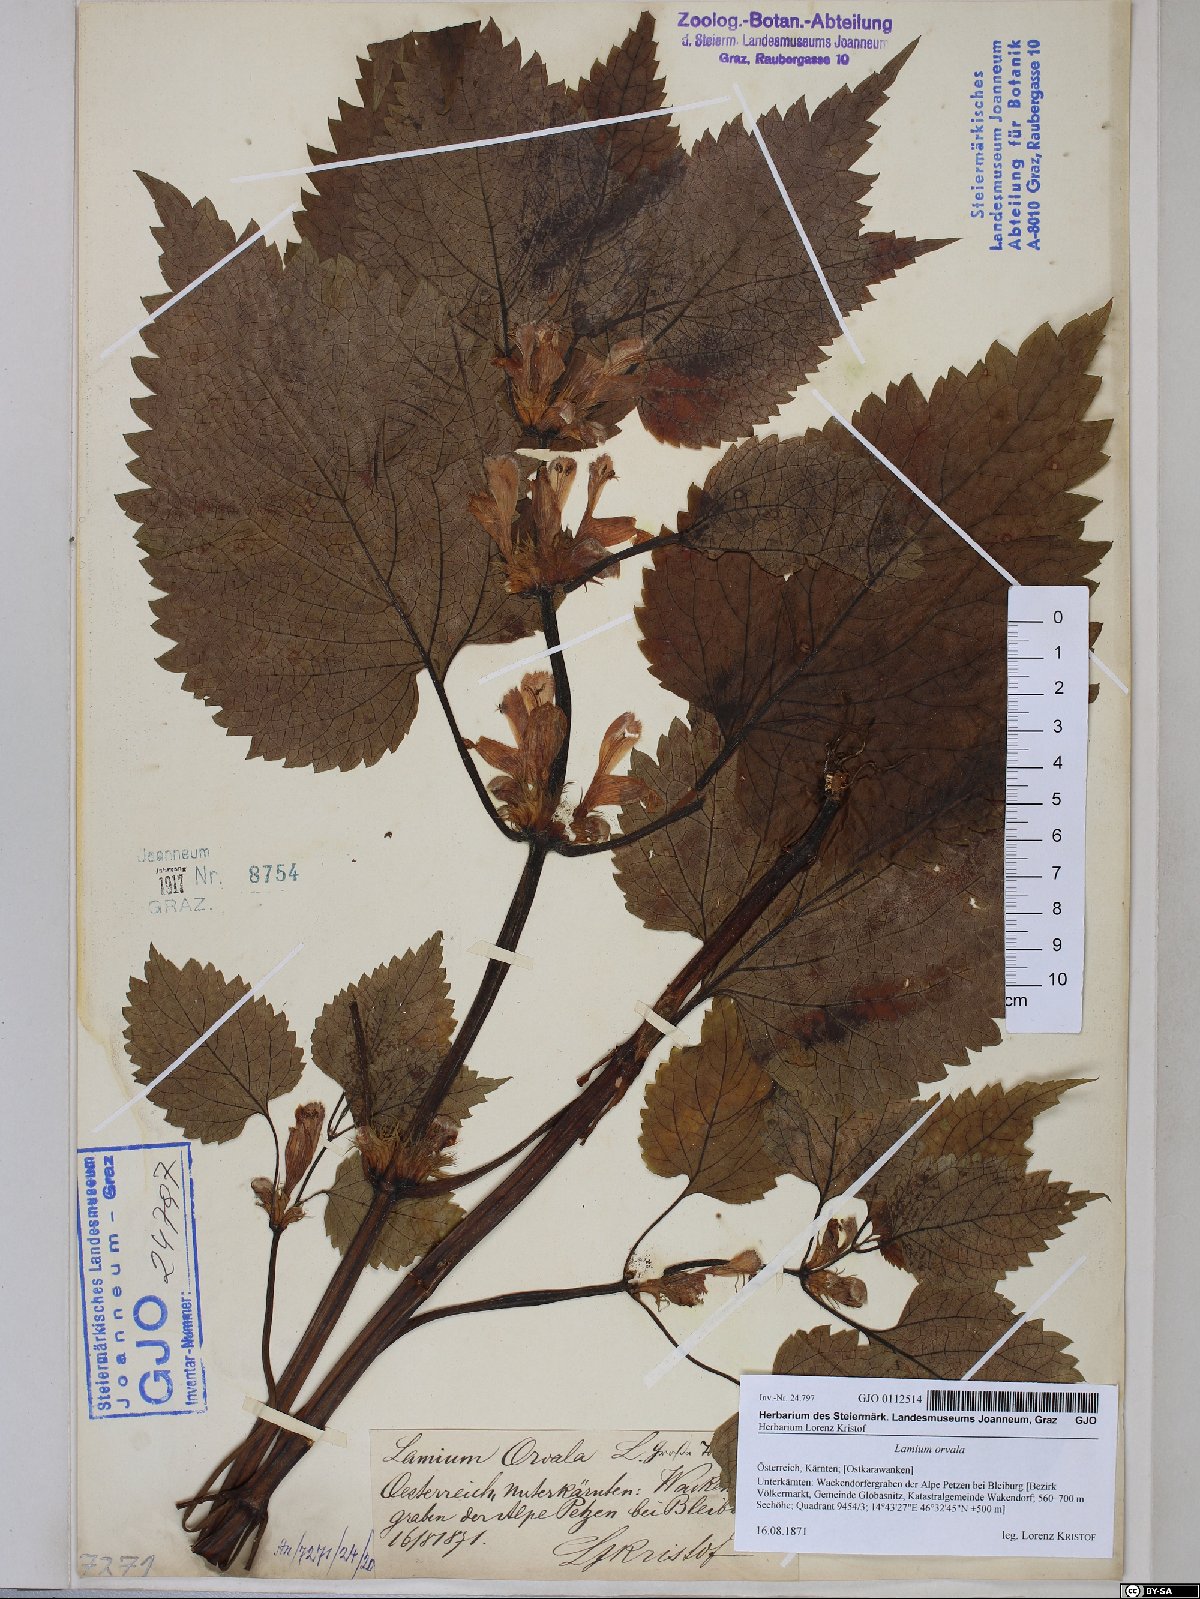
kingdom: Plantae
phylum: Tracheophyta
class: Magnoliopsida
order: Lamiales
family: Lamiaceae
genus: Lamium
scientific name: Lamium orvala
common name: Balm-leaved archangel
